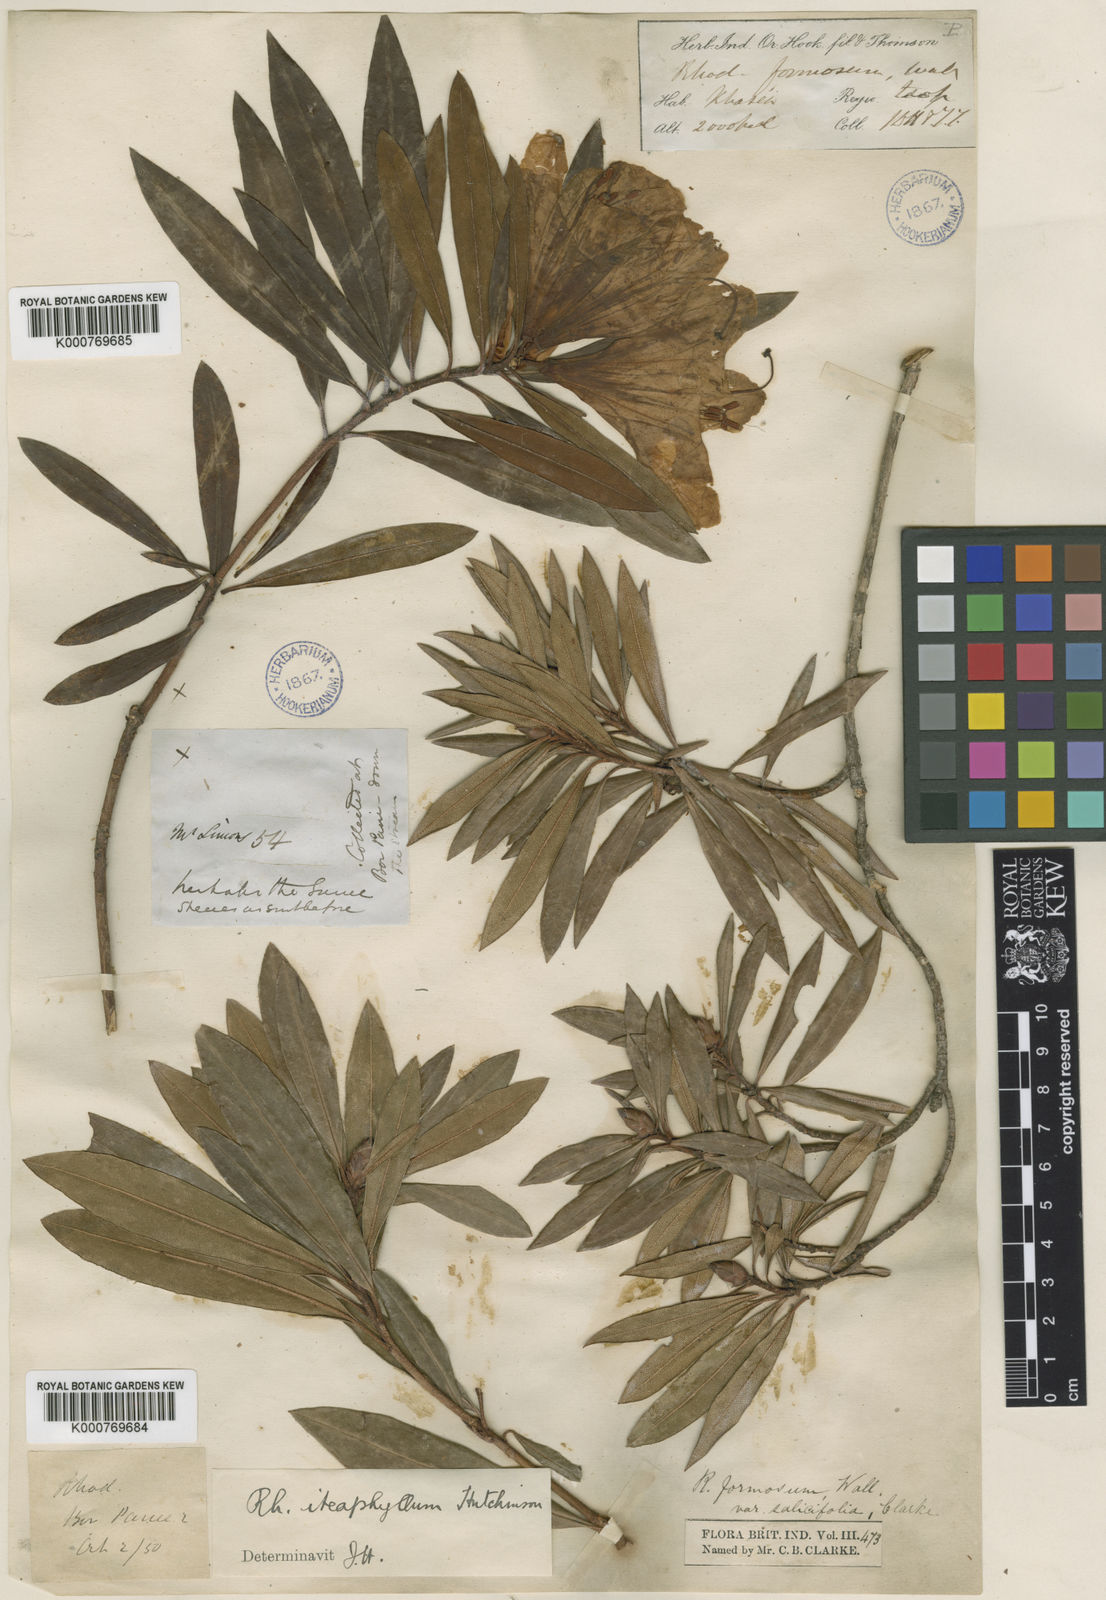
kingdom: Plantae
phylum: Tracheophyta
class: Magnoliopsida
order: Ericales
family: Ericaceae
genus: Rhododendron
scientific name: Rhododendron formosum
